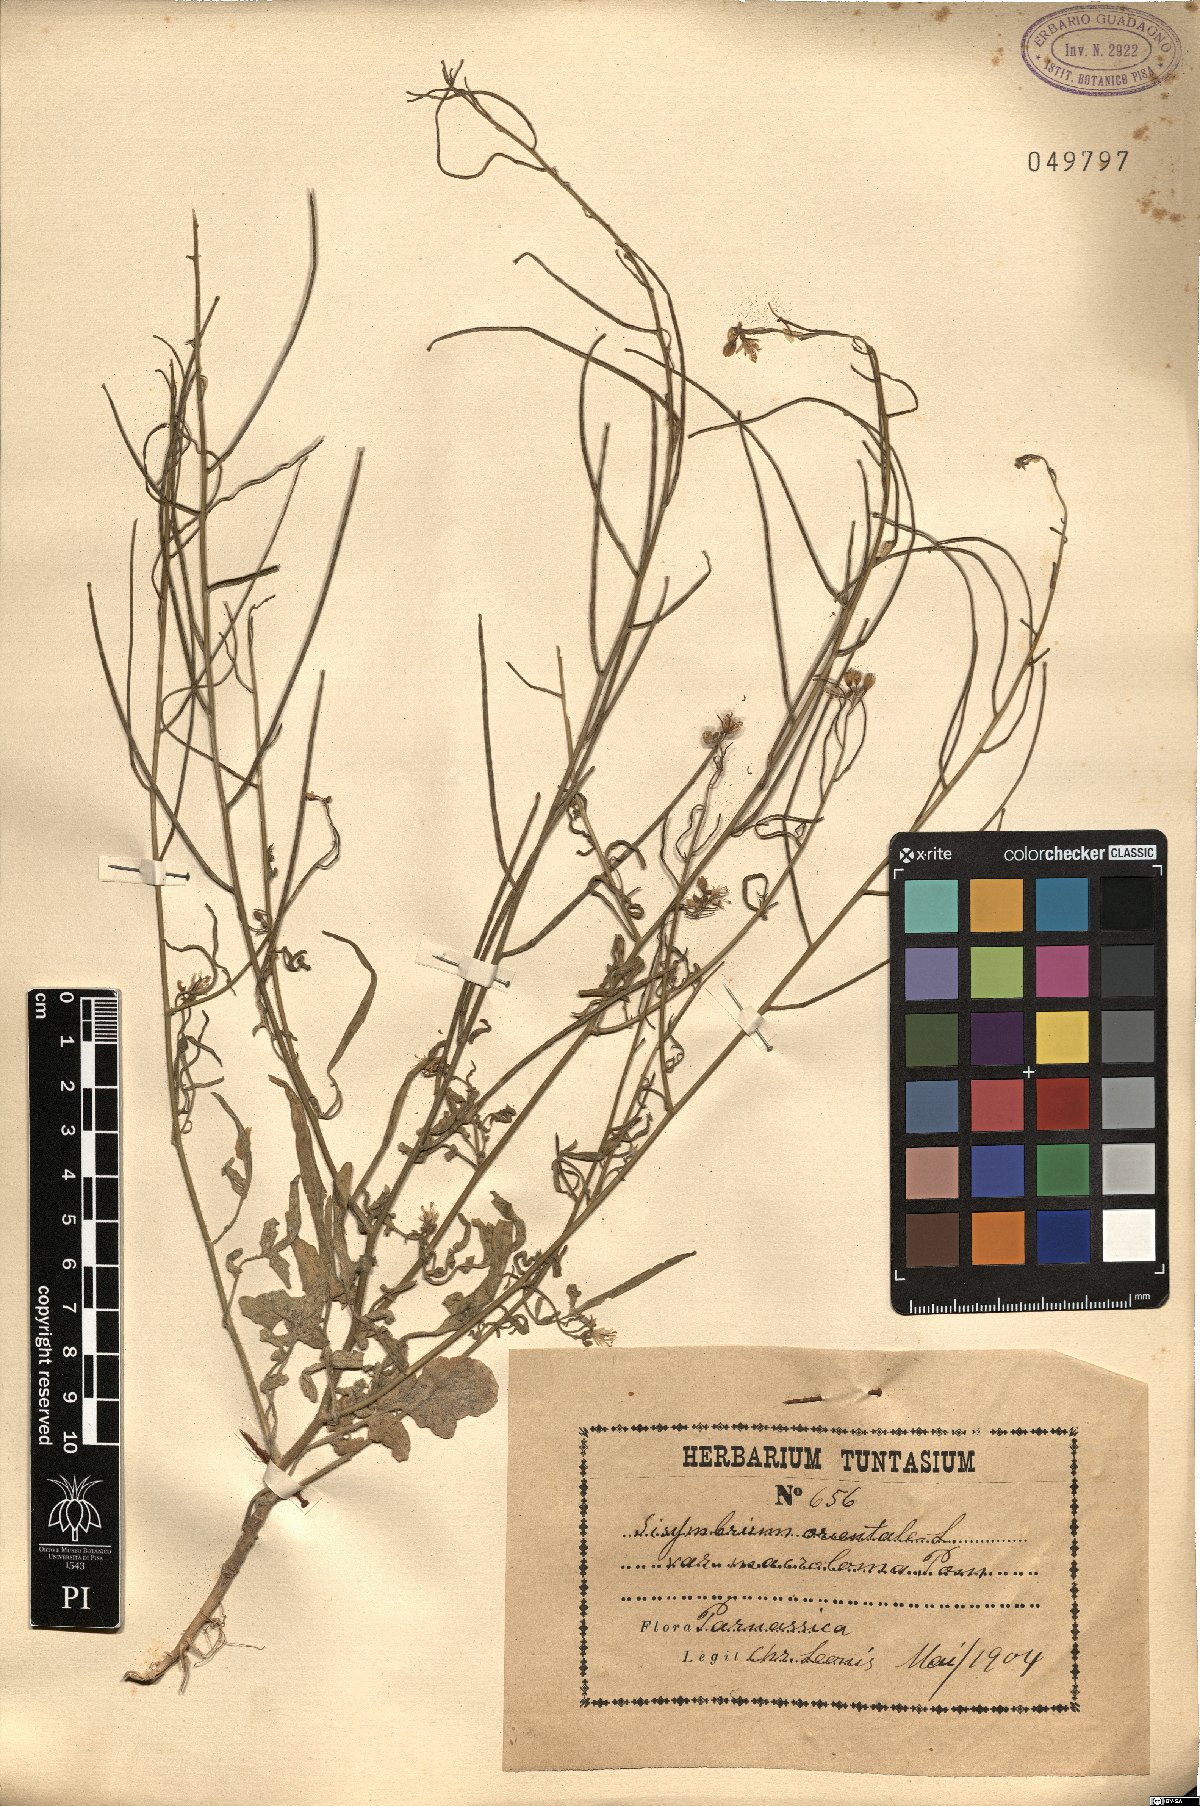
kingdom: Plantae
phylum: Tracheophyta
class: Magnoliopsida
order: Brassicales
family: Brassicaceae
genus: Sisymbrium
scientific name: Sisymbrium macroloma
